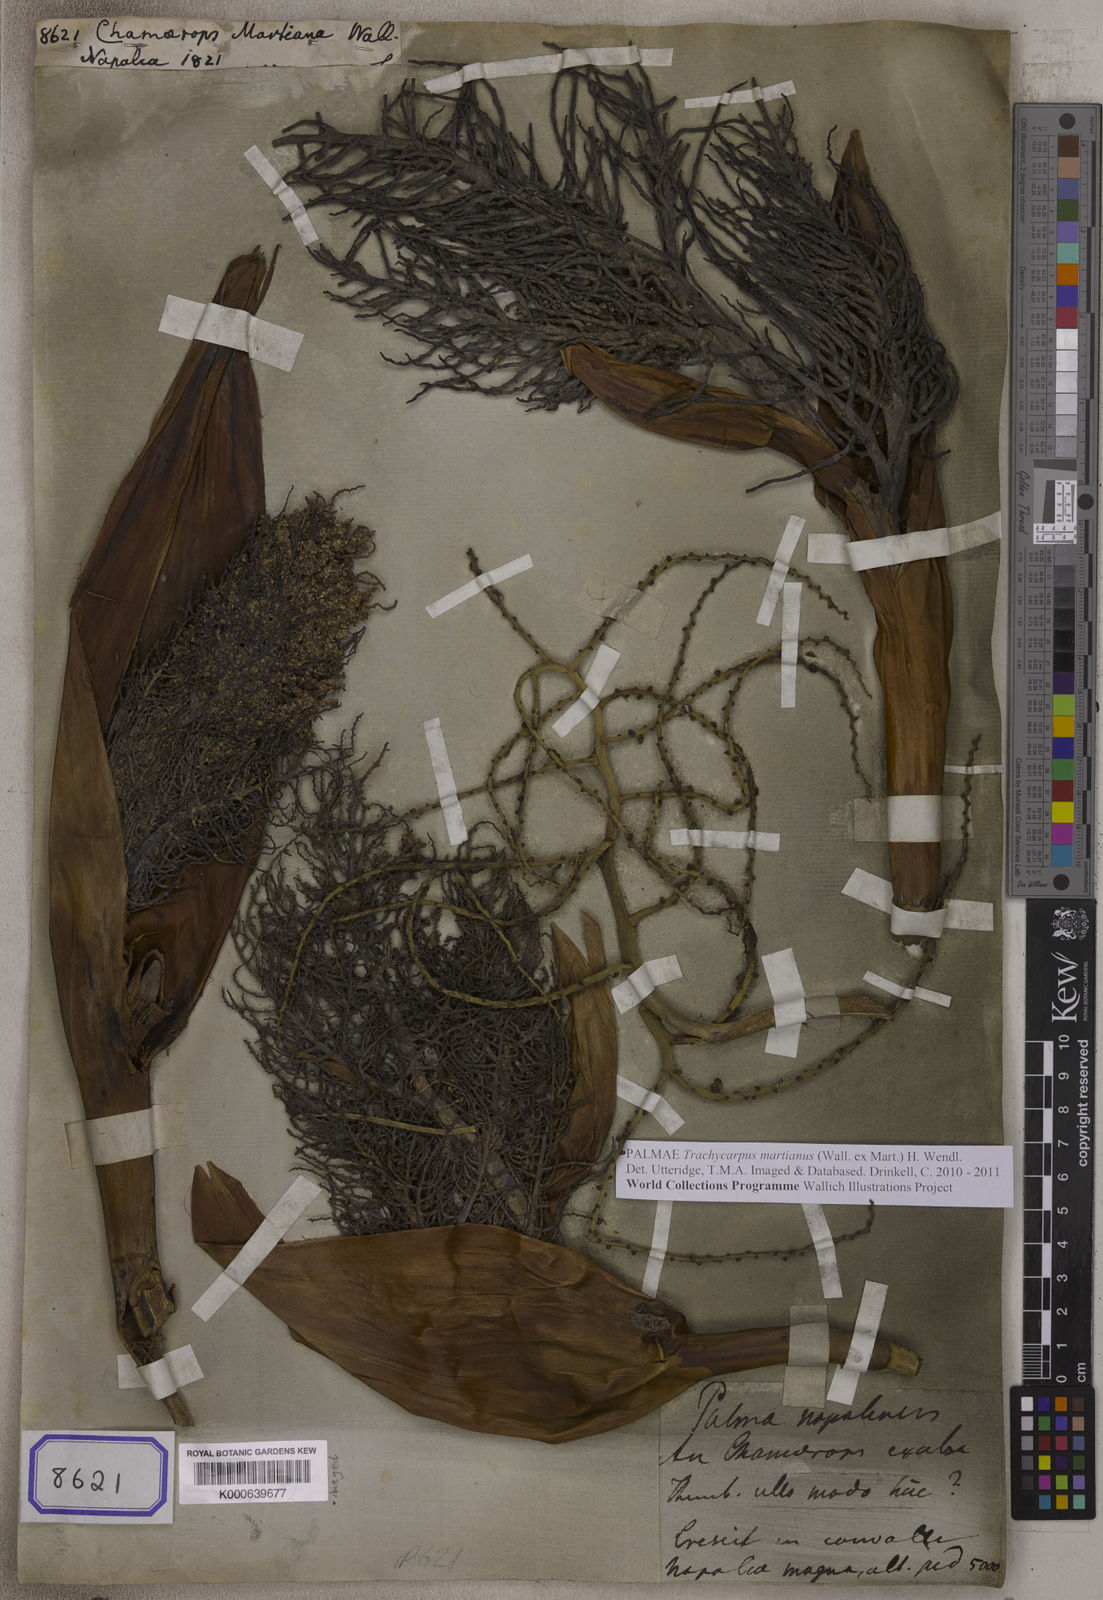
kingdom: Plantae
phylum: Tracheophyta
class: Liliopsida
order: Arecales
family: Arecaceae
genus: Chamaerops
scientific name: Chamaerops
